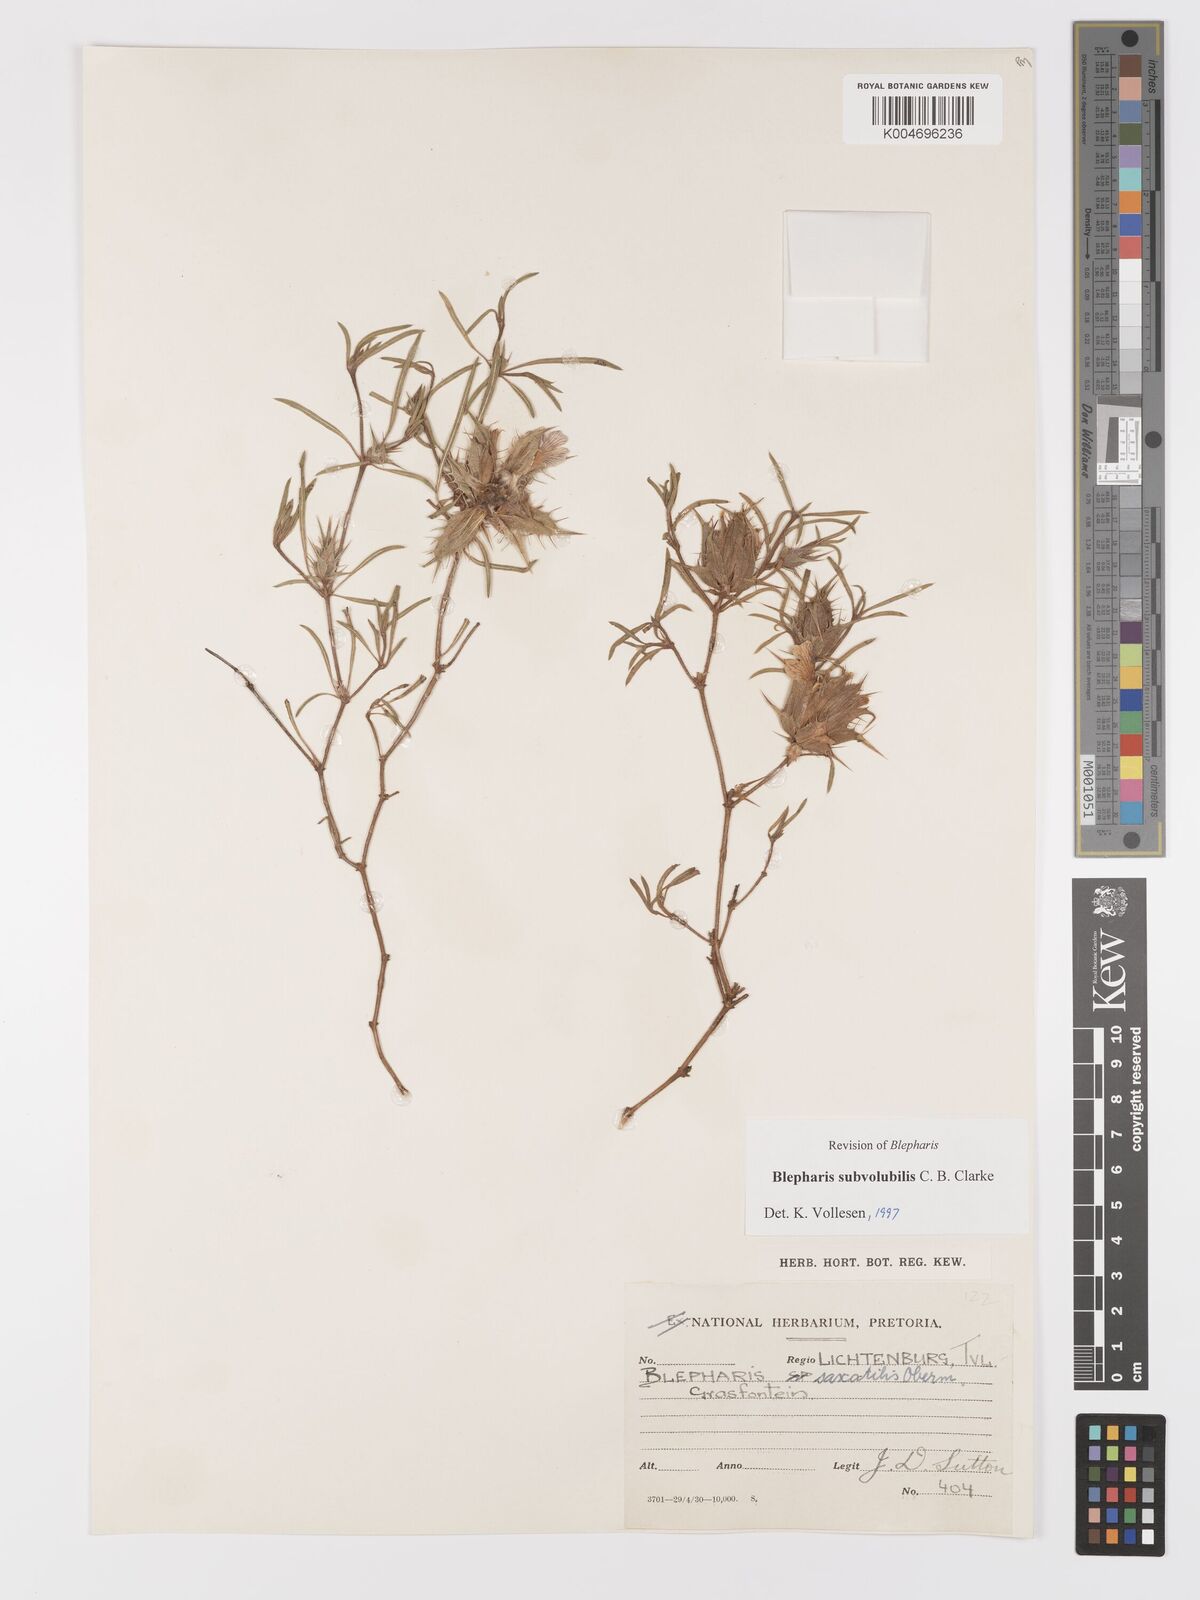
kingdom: Plantae
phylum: Tracheophyta
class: Magnoliopsida
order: Lamiales
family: Acanthaceae
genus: Blepharis
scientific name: Blepharis subvolubilis
